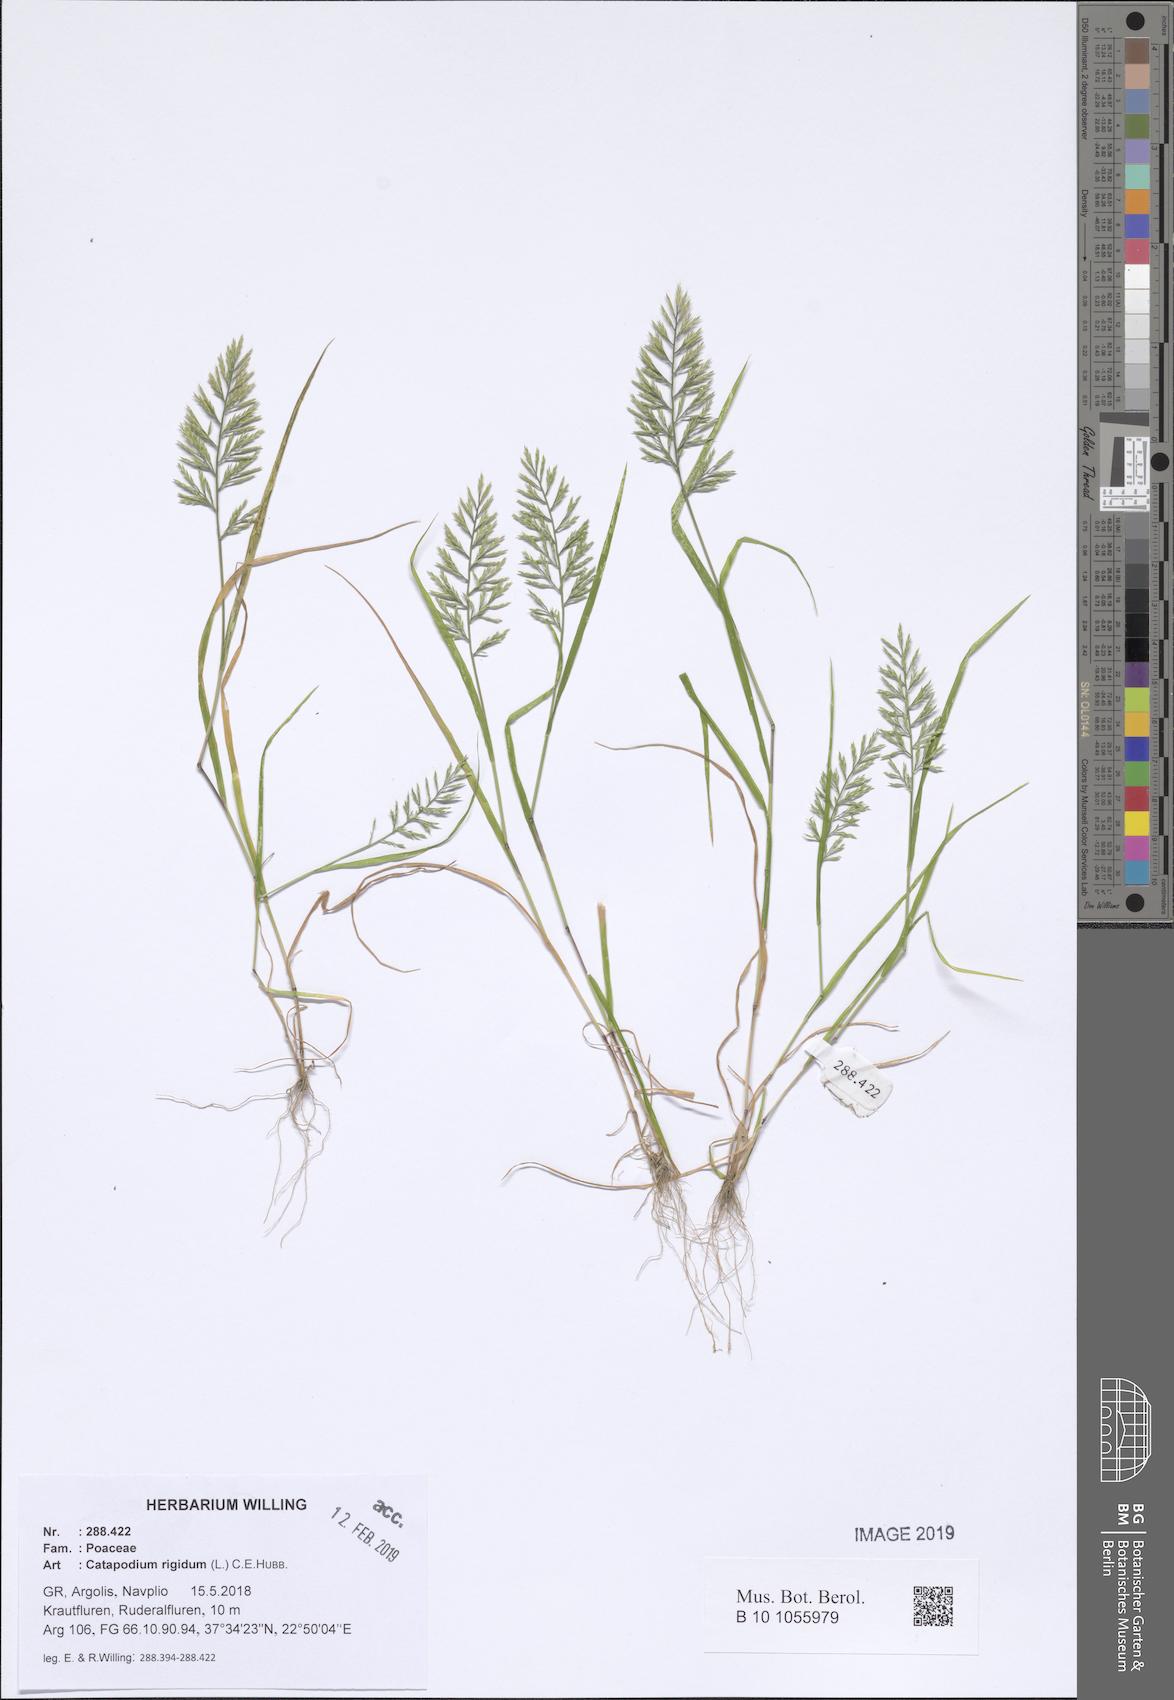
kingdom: Plantae
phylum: Tracheophyta
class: Liliopsida
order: Poales
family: Poaceae
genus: Catapodium
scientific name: Catapodium rigidum
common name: Fern-grass
